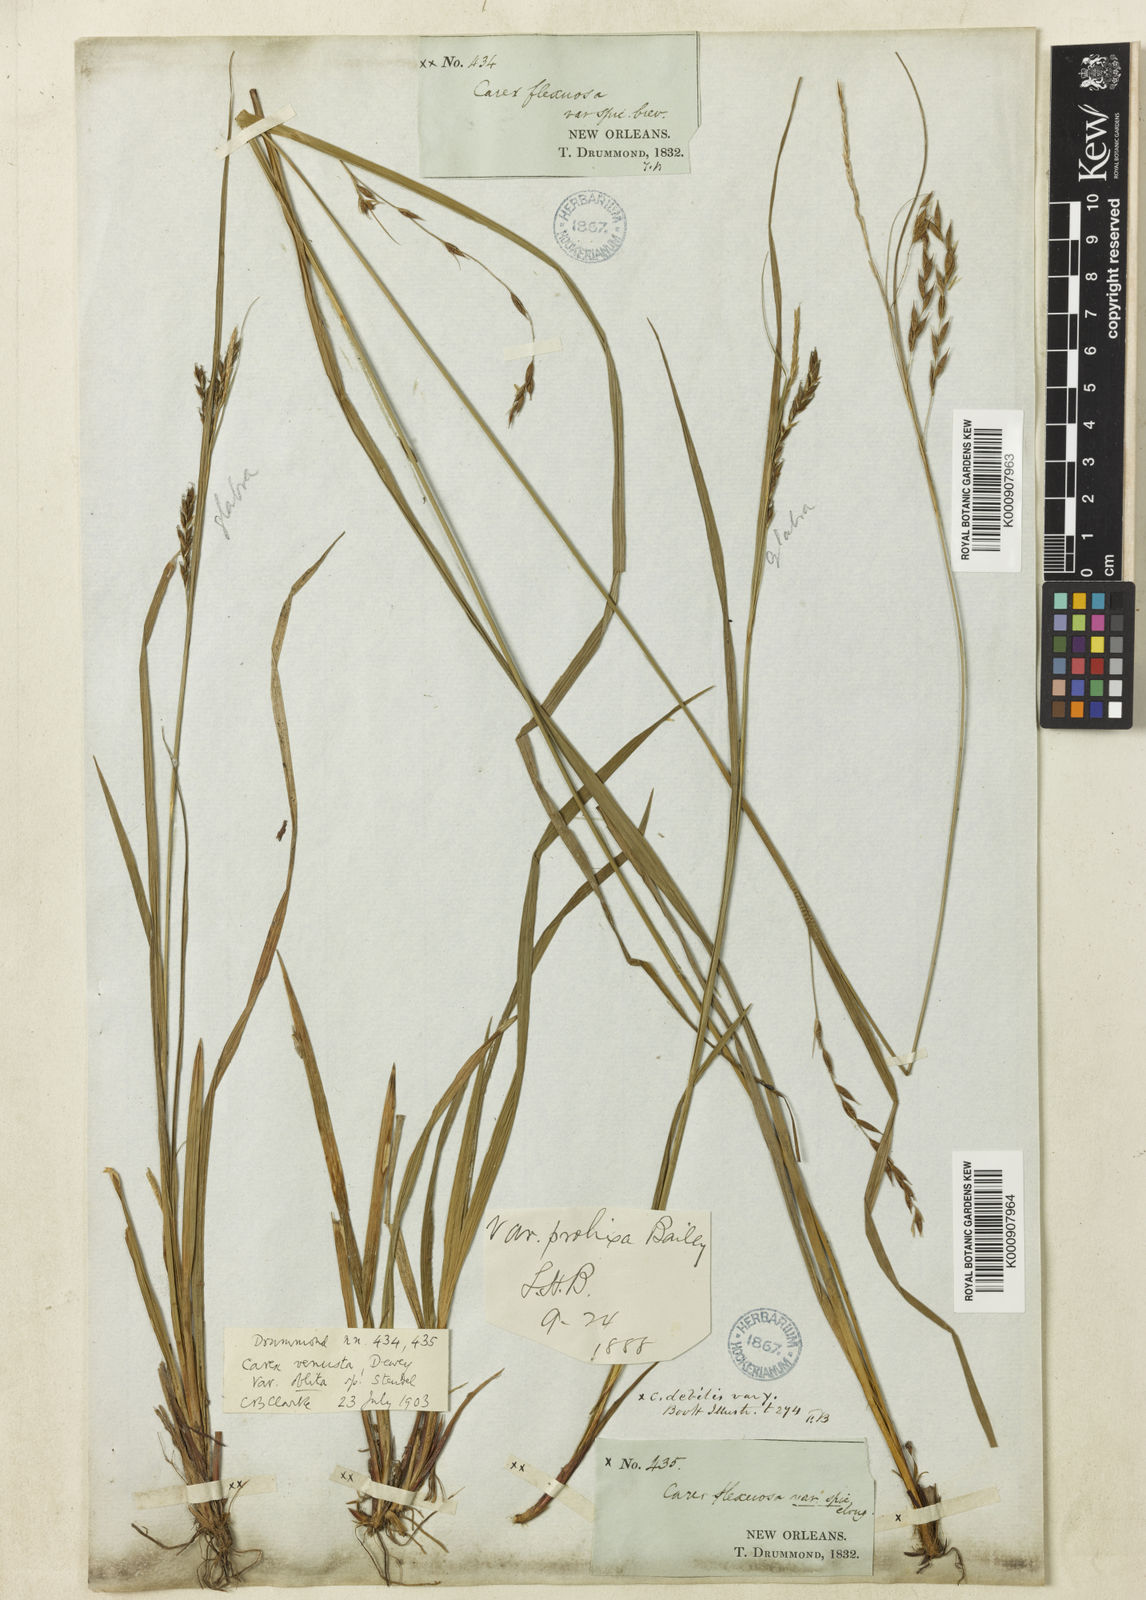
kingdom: Plantae
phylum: Tracheophyta
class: Liliopsida
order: Poales
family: Cyperaceae
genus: Carex
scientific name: Carex venusta
